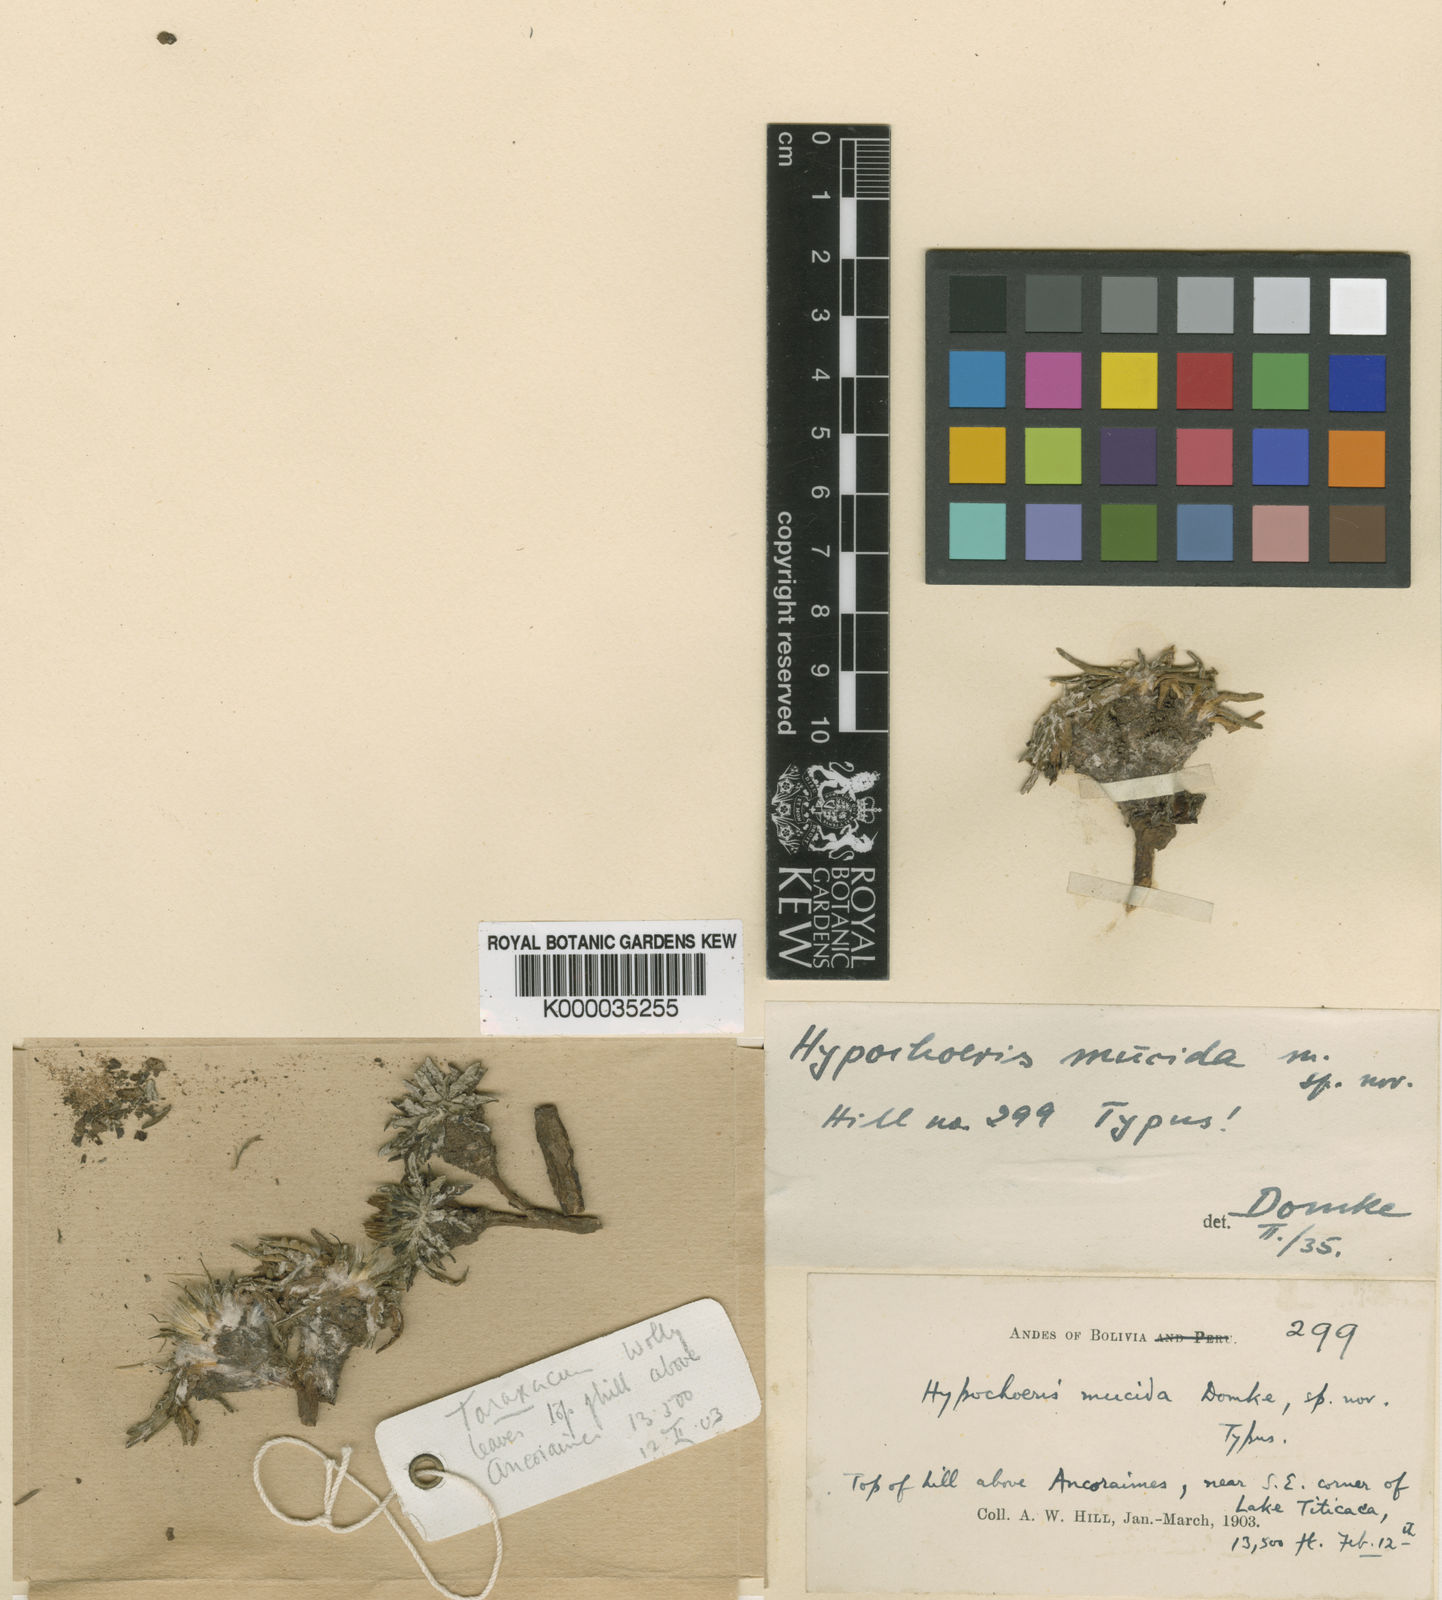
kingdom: Plantae
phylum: Tracheophyta
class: Magnoliopsida
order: Asterales
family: Asteraceae
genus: Hypochaeris
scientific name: Hypochaeris mucida
